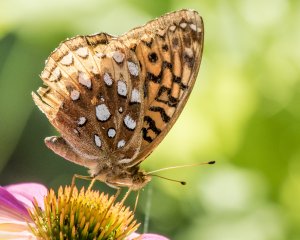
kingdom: Animalia
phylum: Arthropoda
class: Insecta
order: Lepidoptera
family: Nymphalidae
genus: Speyeria
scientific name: Speyeria cybele
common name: Great Spangled Fritillary
